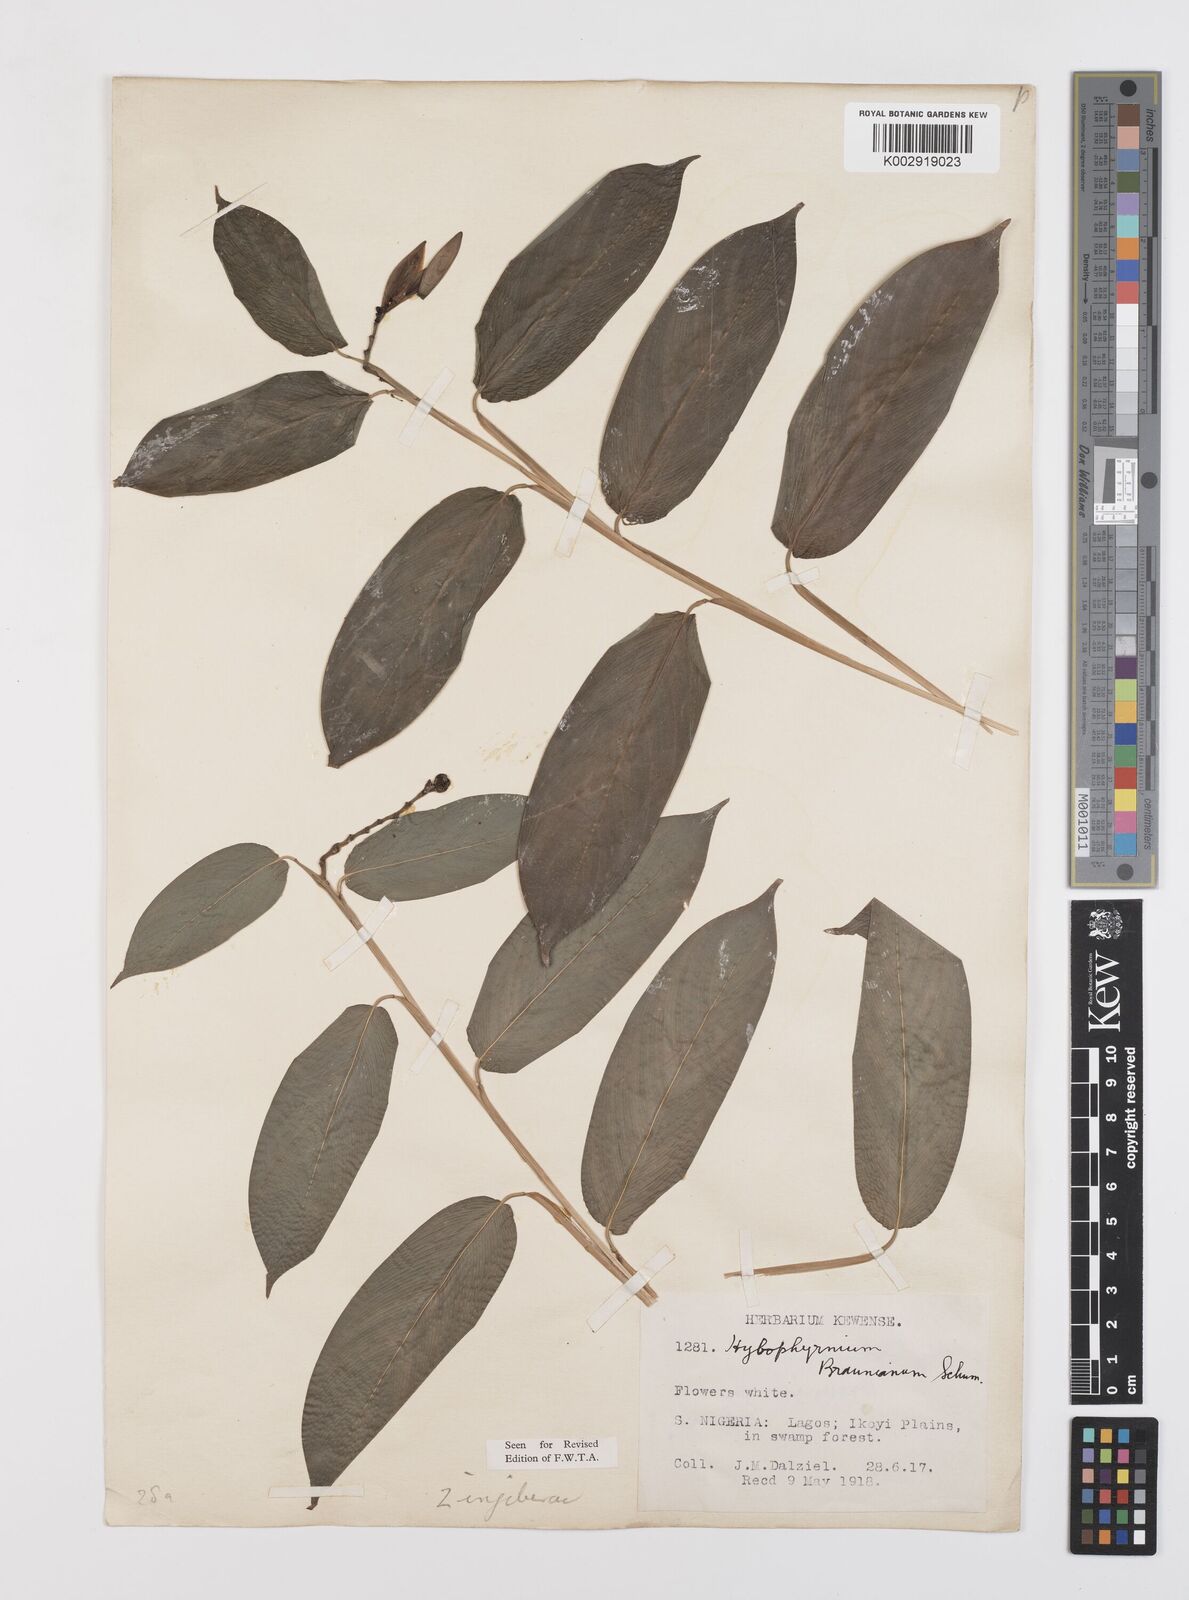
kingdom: Plantae
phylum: Tracheophyta
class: Liliopsida
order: Zingiberales
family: Marantaceae
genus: Trachyphrynium
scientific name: Trachyphrynium braunianum
